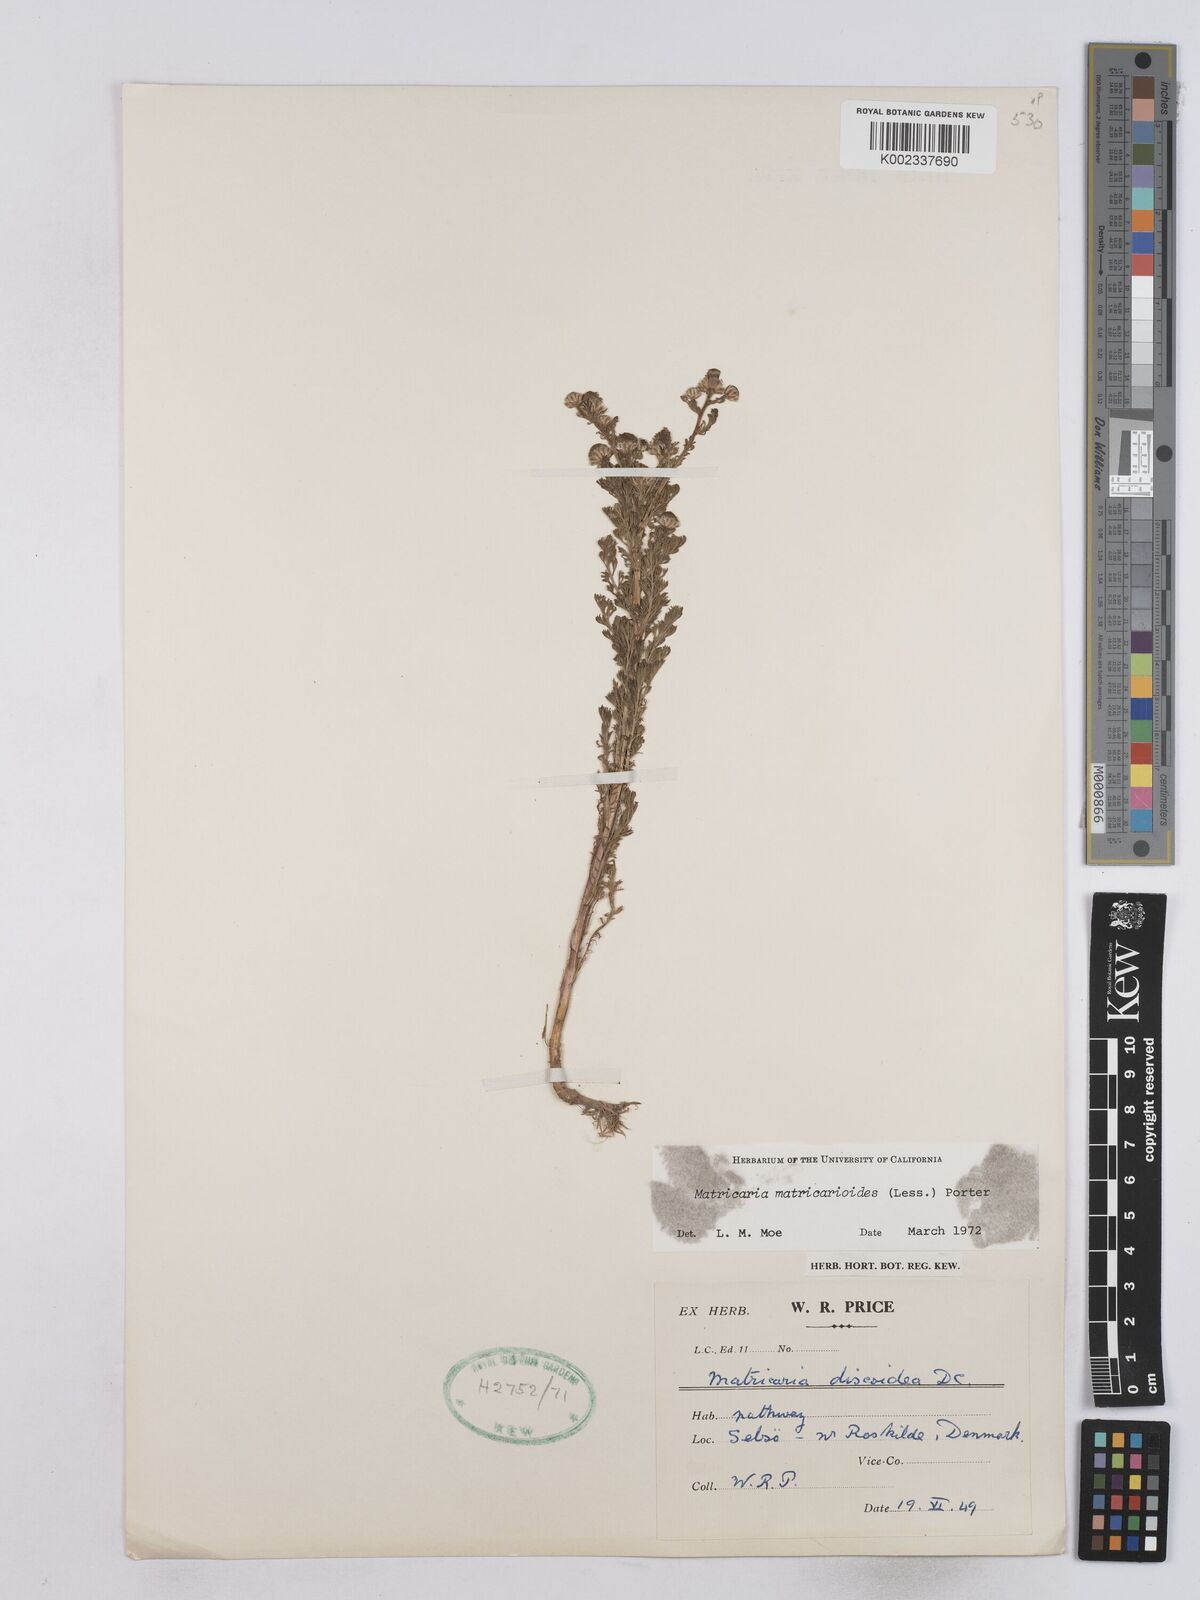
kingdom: Plantae
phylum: Tracheophyta
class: Magnoliopsida
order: Asterales
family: Asteraceae
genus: Matricaria
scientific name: Matricaria discoidea
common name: Disc mayweed
